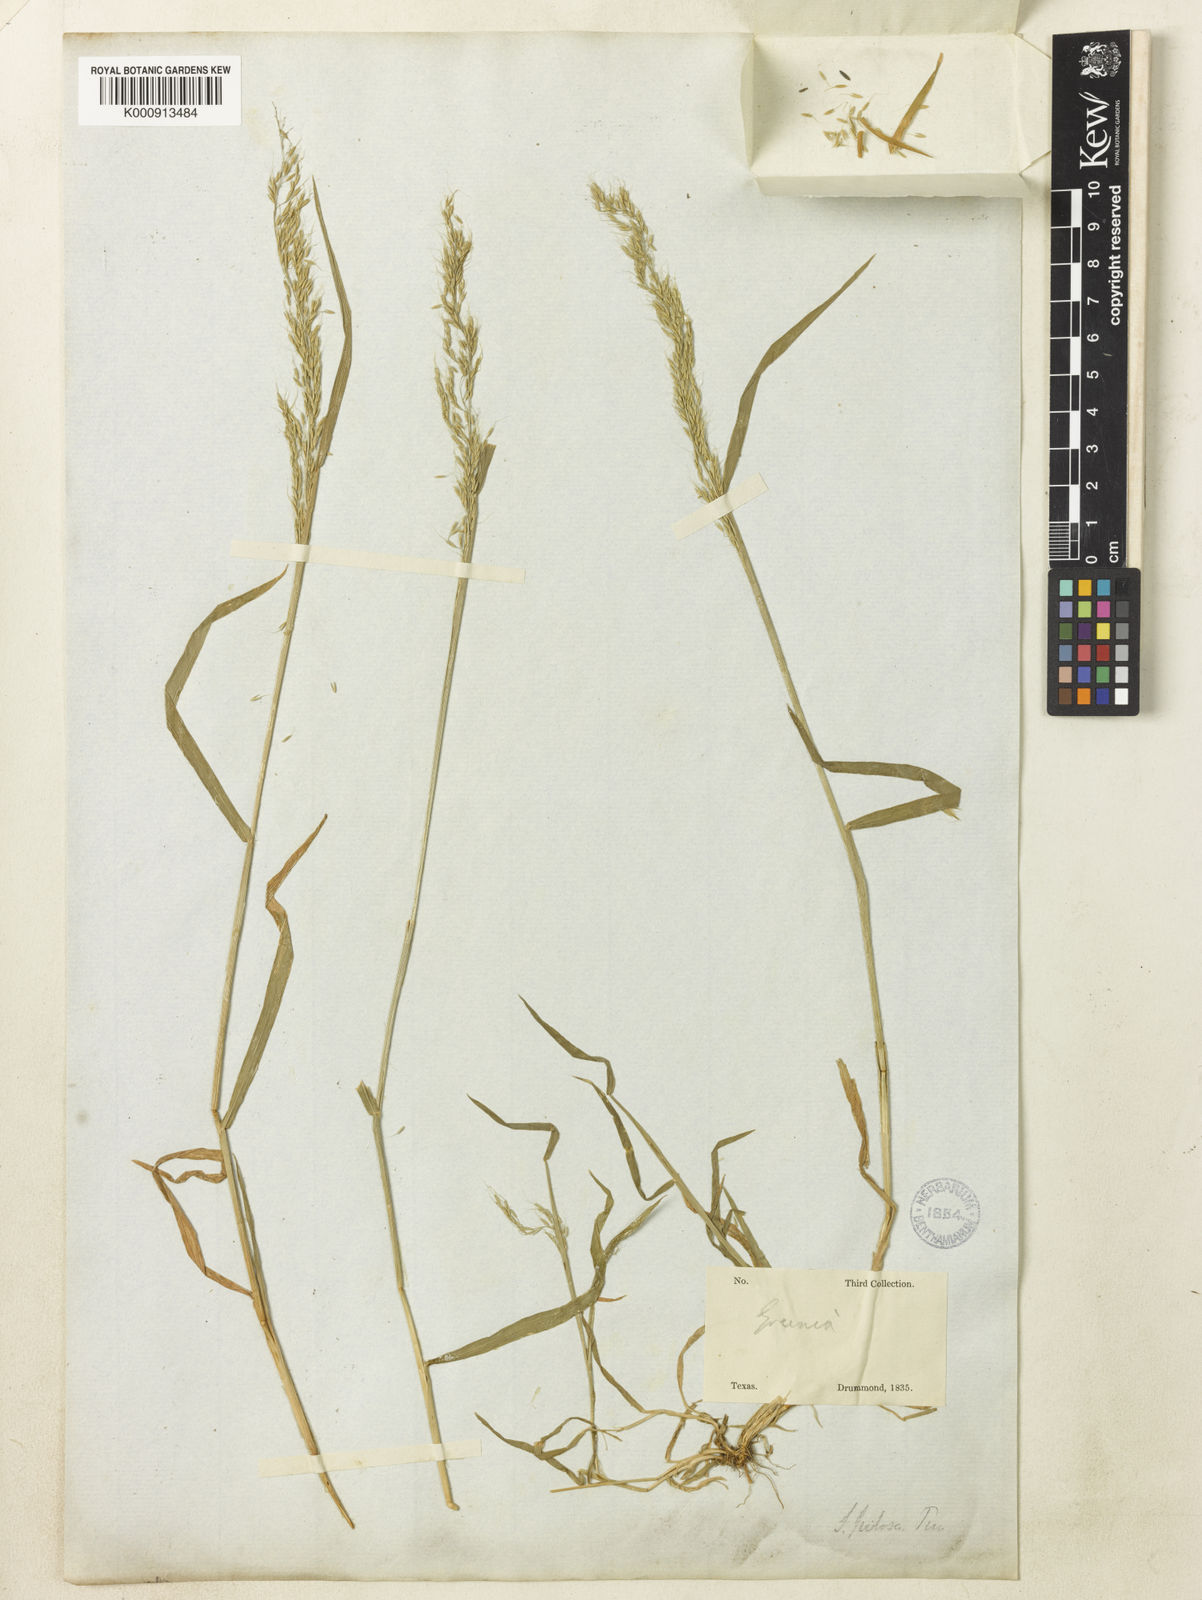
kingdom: Plantae
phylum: Tracheophyta
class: Liliopsida
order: Poales
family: Poaceae
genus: Limnodea
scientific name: Limnodea arkansana
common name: Ozark-grass
